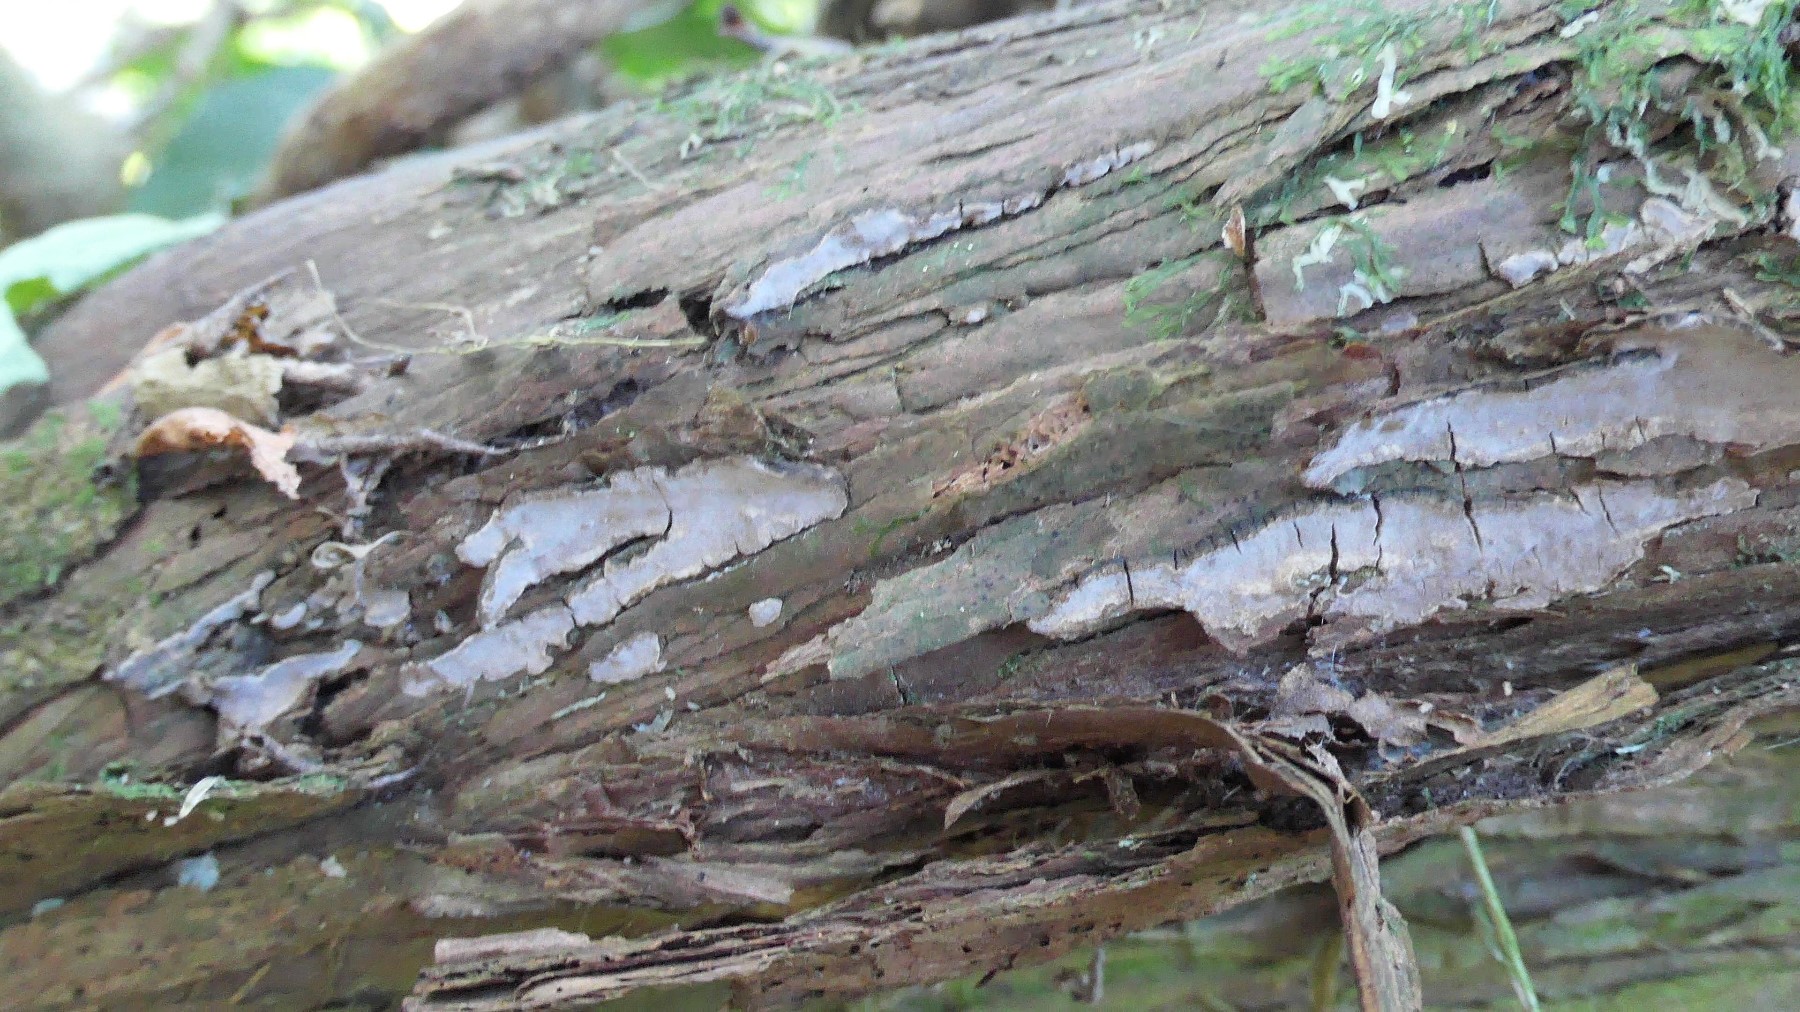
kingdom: Fungi
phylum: Basidiomycota
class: Agaricomycetes
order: Russulales
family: Echinodontiaceae
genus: Amylostereum
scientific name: Amylostereum laevigatum
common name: ene-lædersvamp
